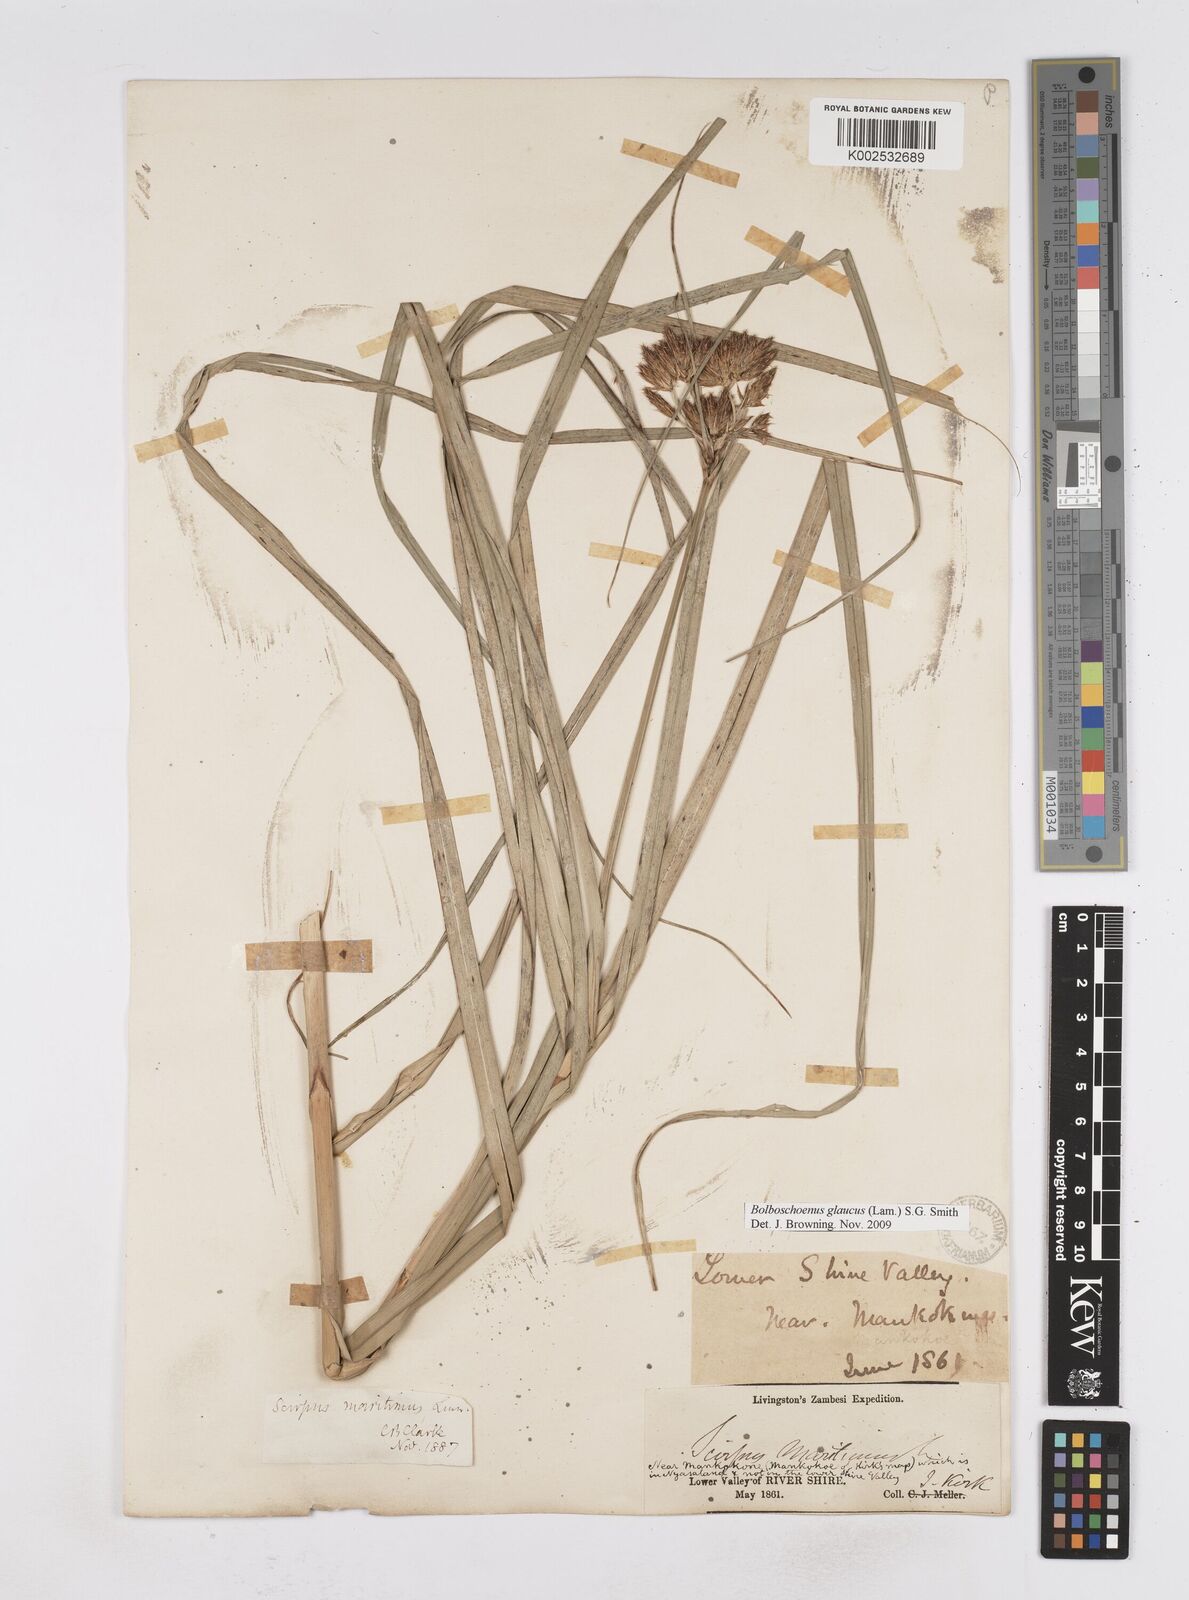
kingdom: Plantae
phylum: Tracheophyta
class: Liliopsida
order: Poales
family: Cyperaceae
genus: Bolboschoenus
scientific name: Bolboschoenus glaucus
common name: Tuberous bulrush
